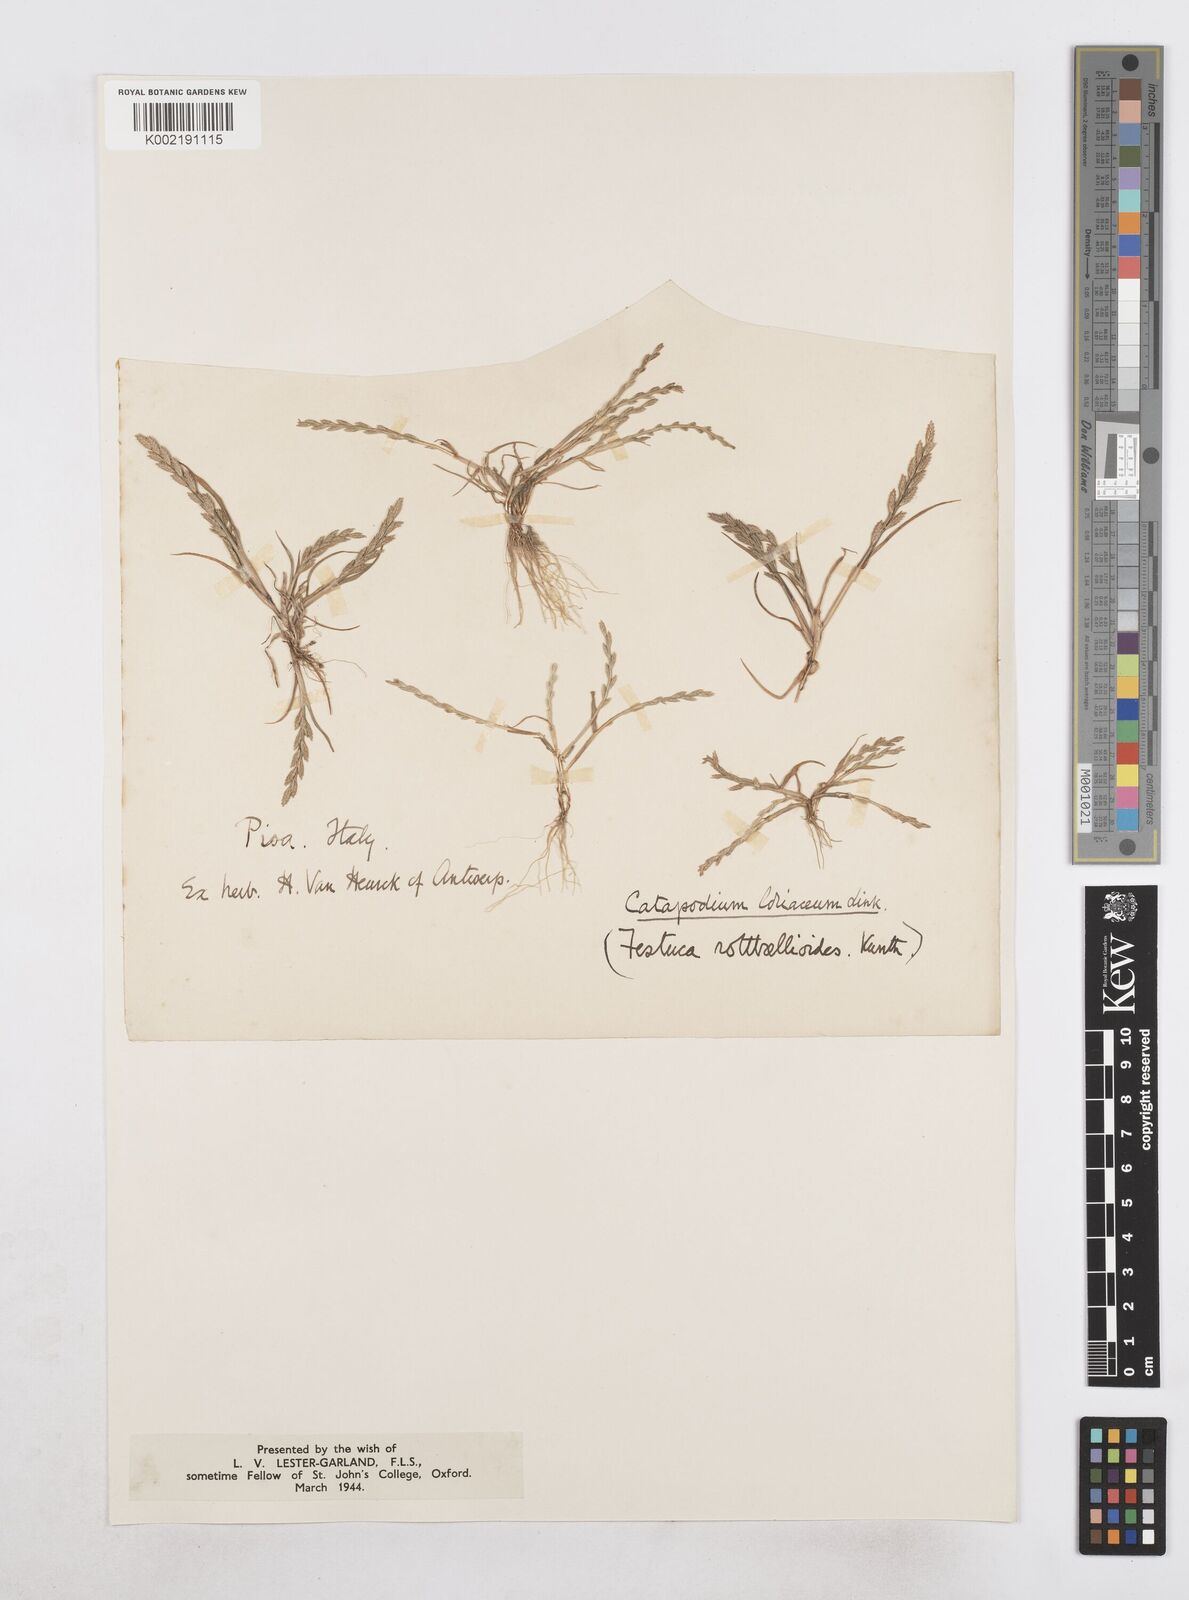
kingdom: Plantae
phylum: Tracheophyta
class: Liliopsida
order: Poales
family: Poaceae
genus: Catapodium
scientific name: Catapodium marinum
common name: Sea fern-grass
